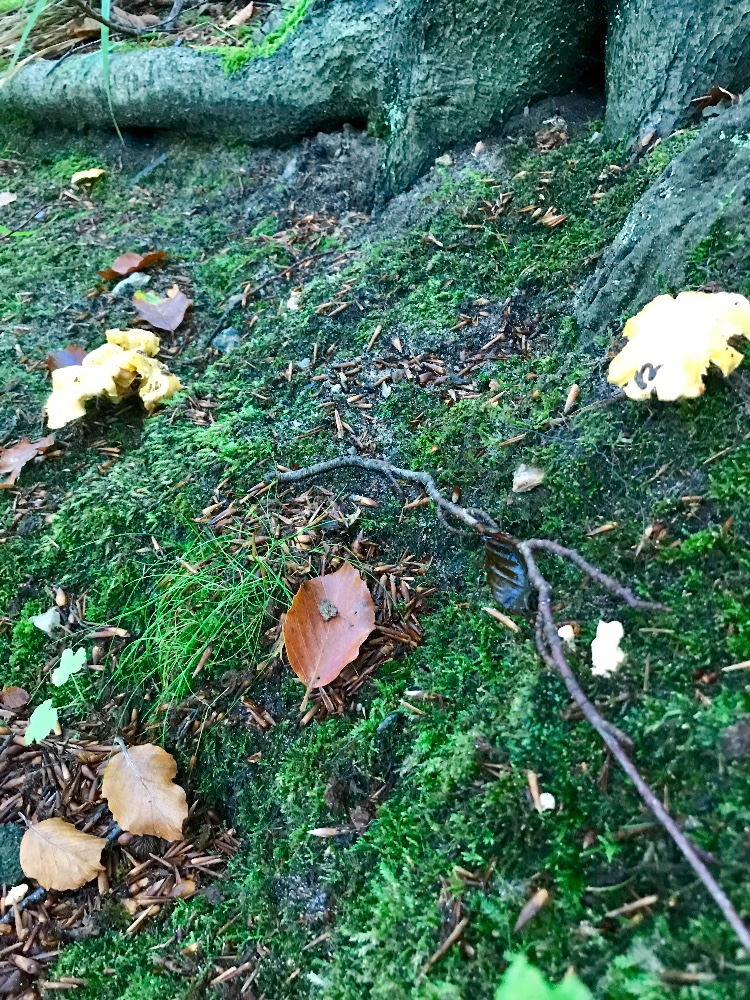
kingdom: Fungi
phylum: Basidiomycota
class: Agaricomycetes
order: Cantharellales
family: Hydnaceae
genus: Cantharellus
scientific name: Cantharellus
